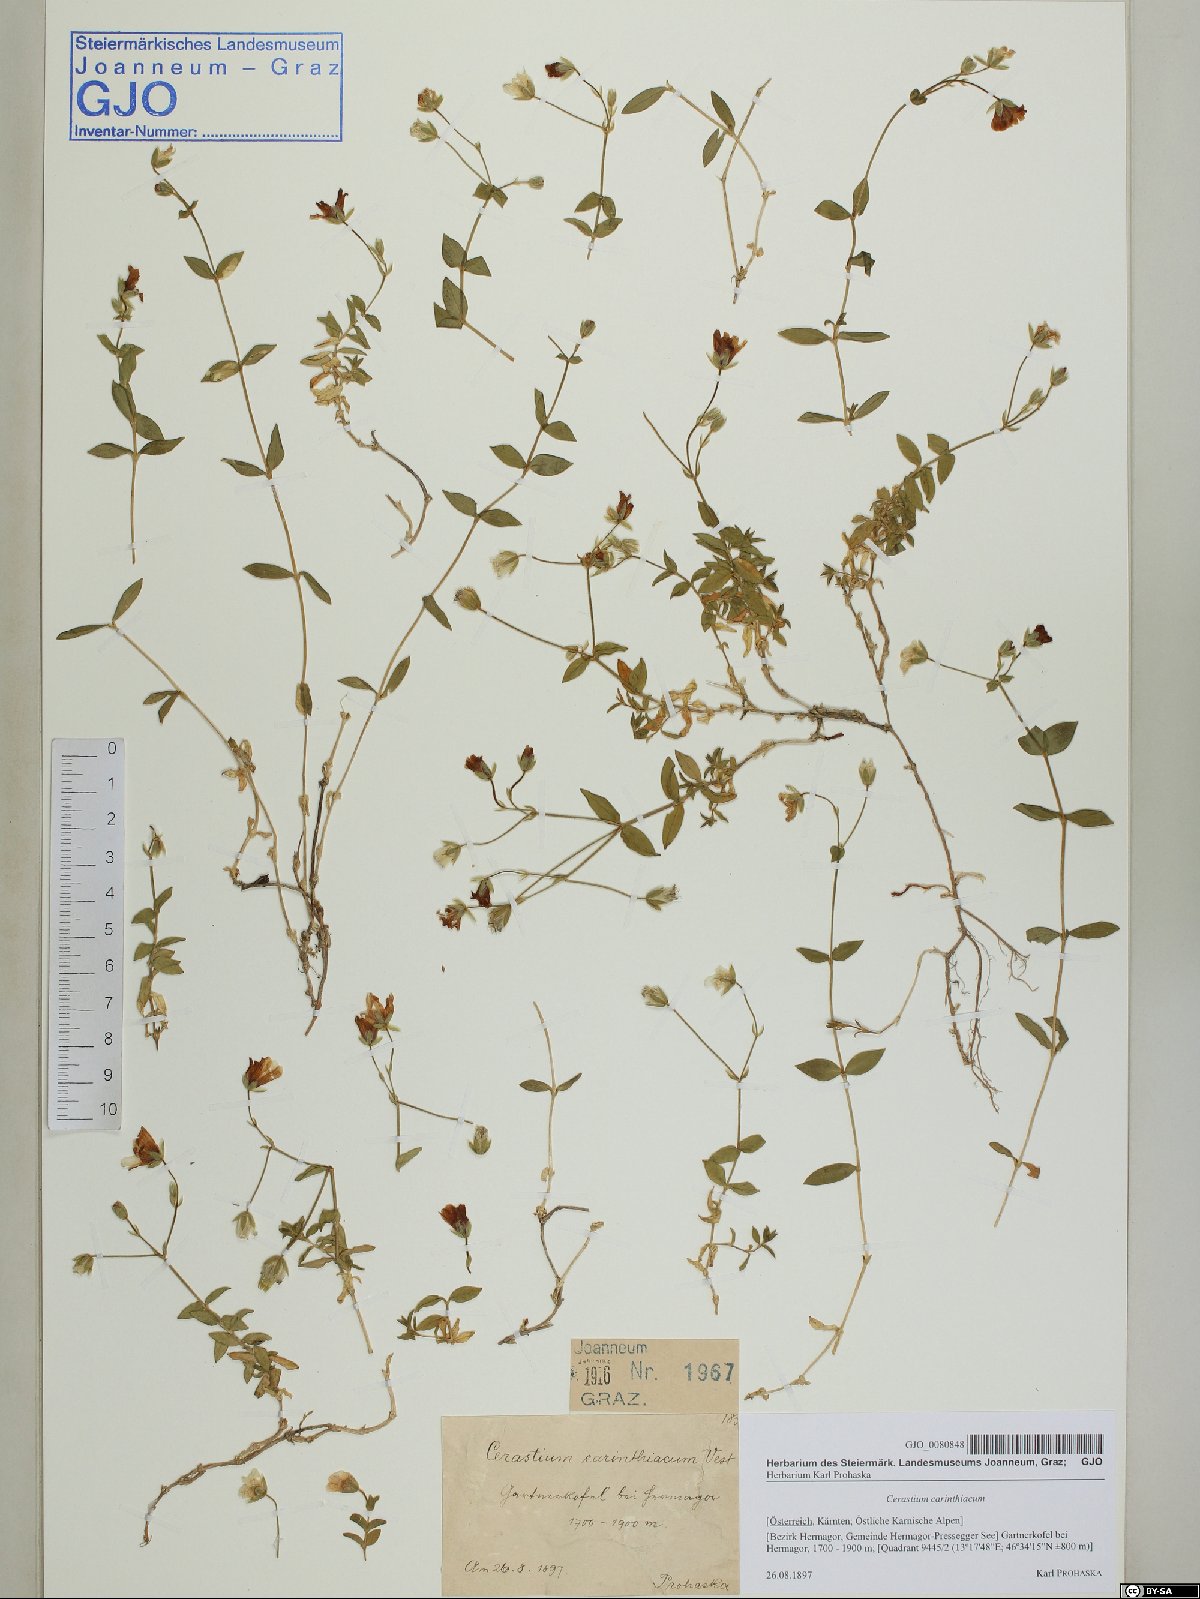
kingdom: Plantae
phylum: Tracheophyta
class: Magnoliopsida
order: Caryophyllales
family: Caryophyllaceae
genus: Cerastium
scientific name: Cerastium carinthiacum
